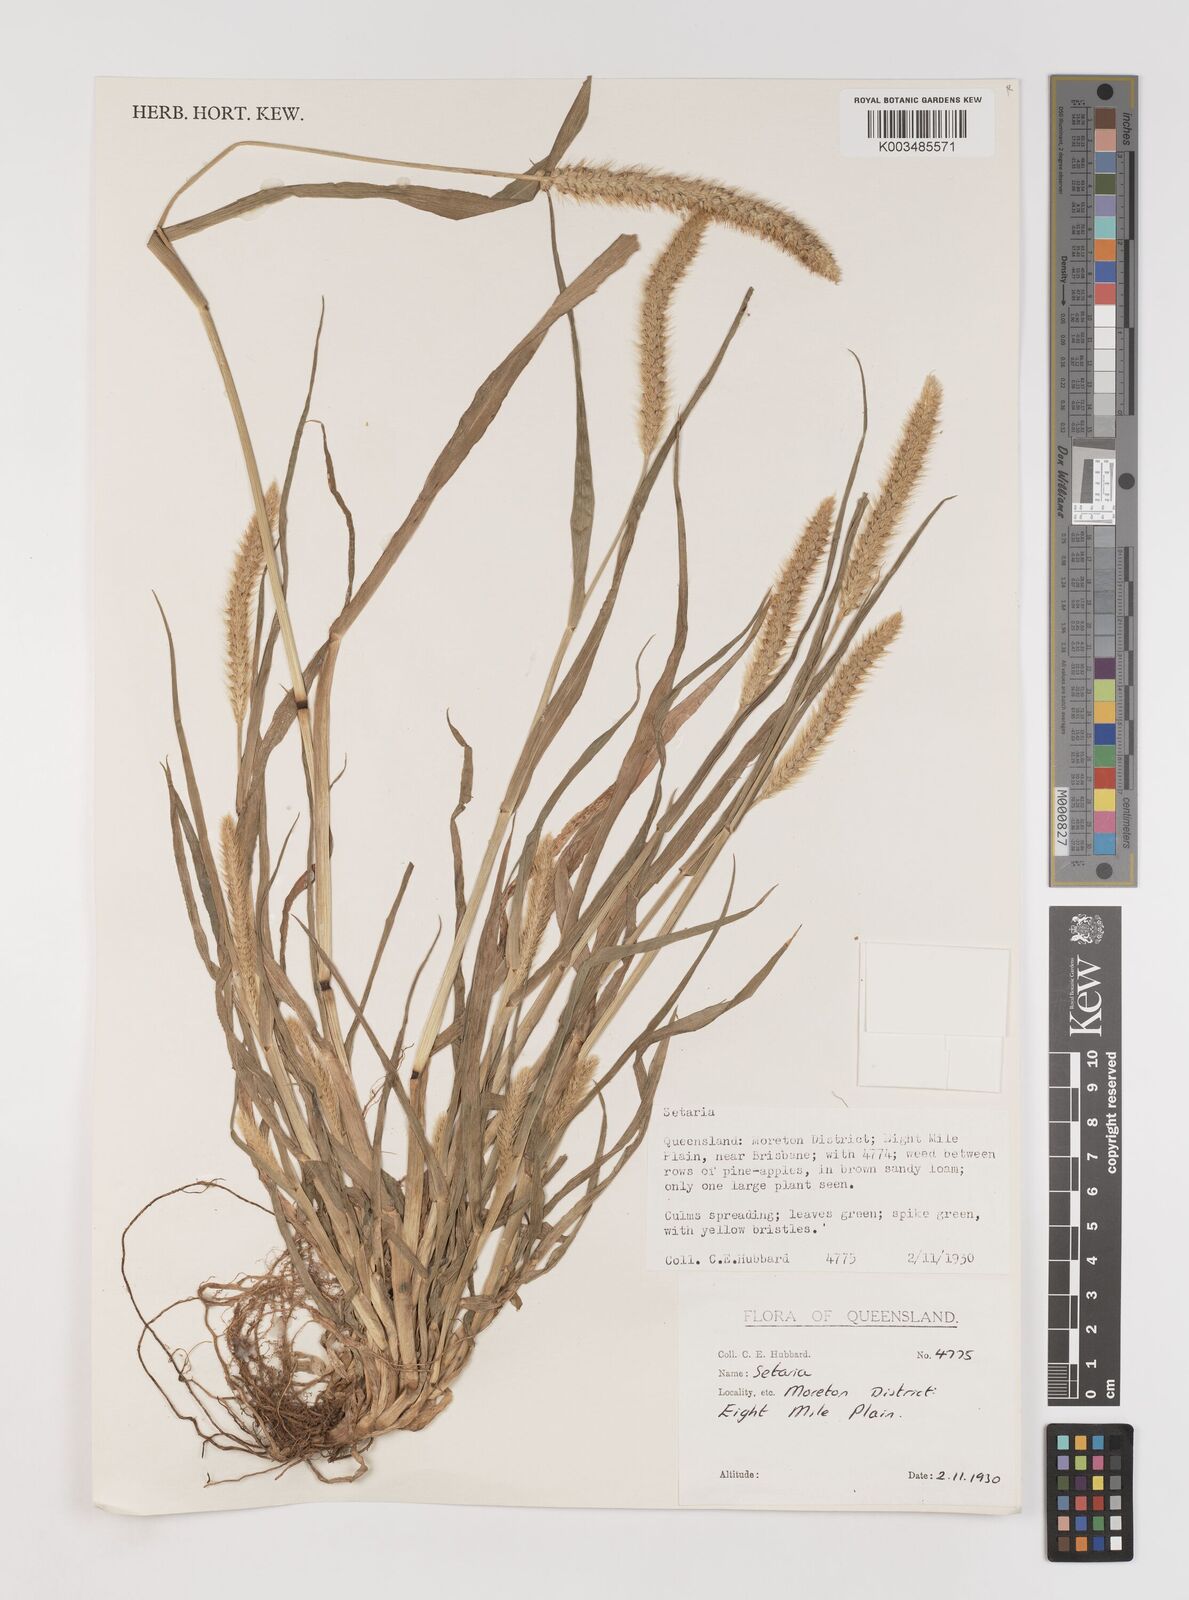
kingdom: Plantae
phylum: Tracheophyta
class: Liliopsida
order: Poales
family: Poaceae
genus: Setaria
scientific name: Setaria
